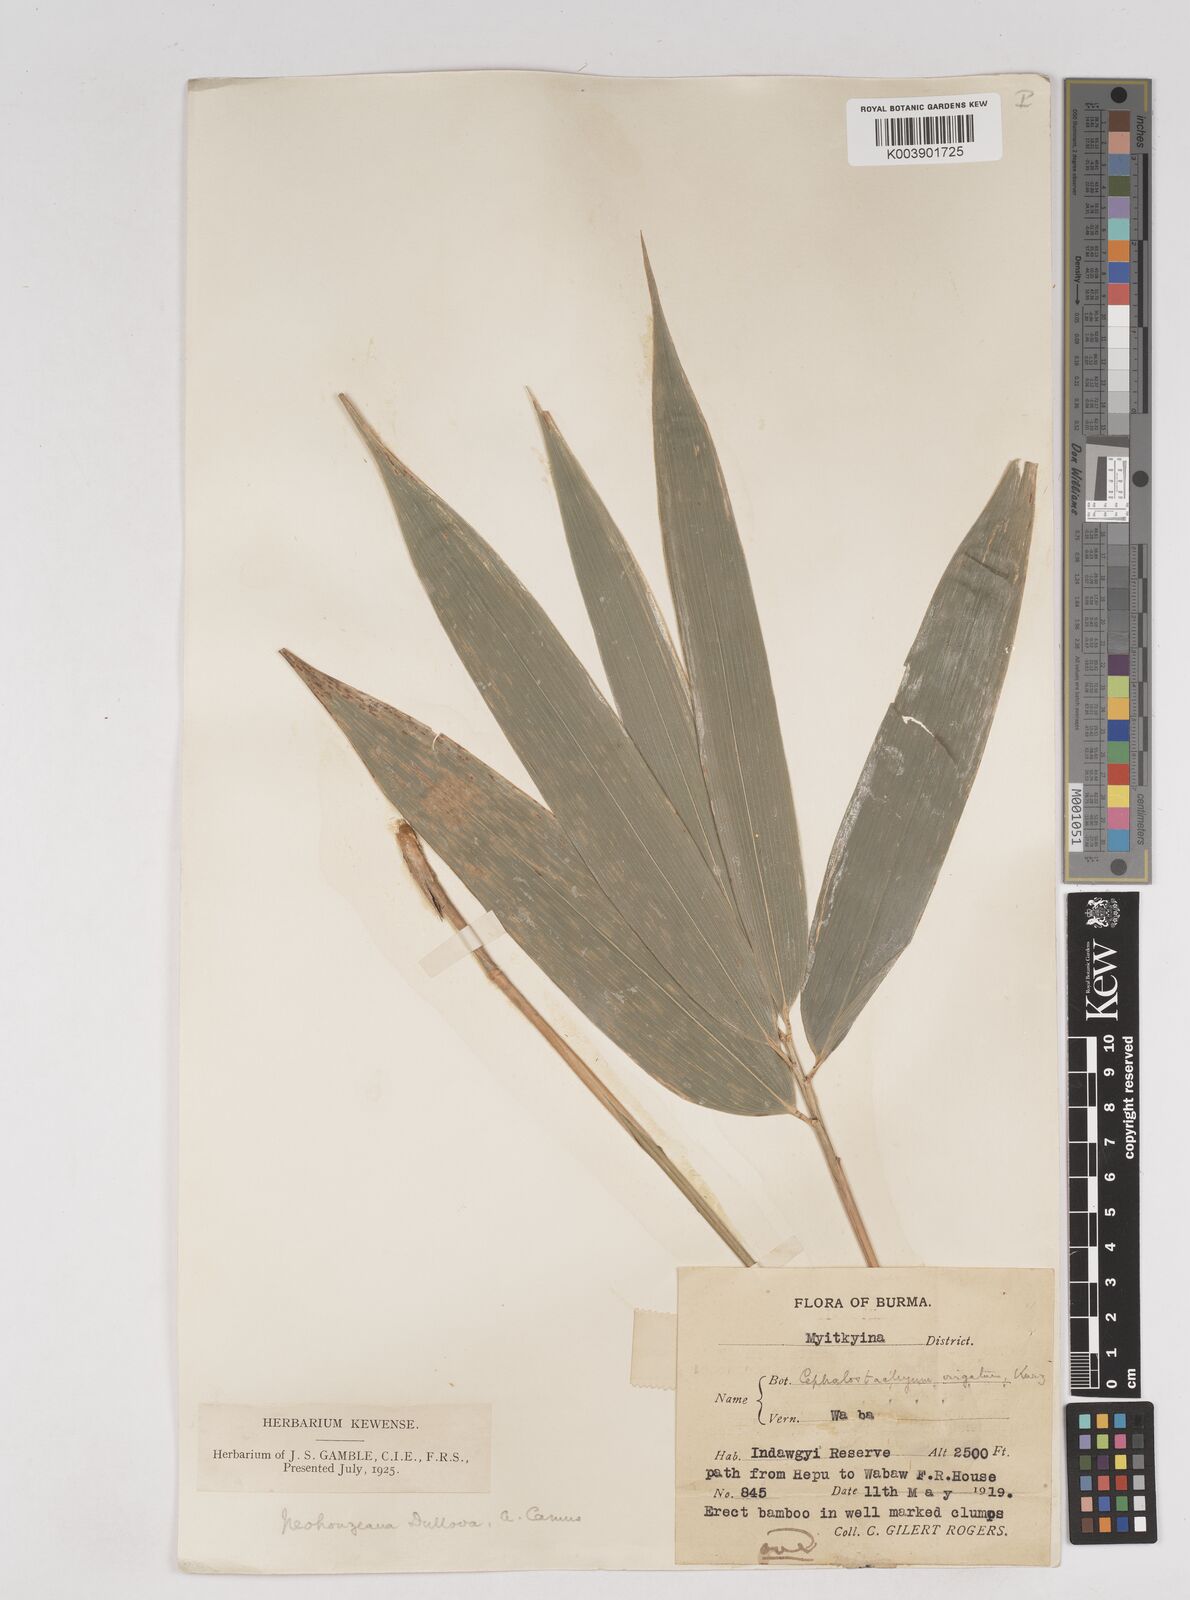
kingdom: Plantae
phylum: Tracheophyta
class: Liliopsida
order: Poales
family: Poaceae
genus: Schizostachyum
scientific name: Schizostachyum dullooa
